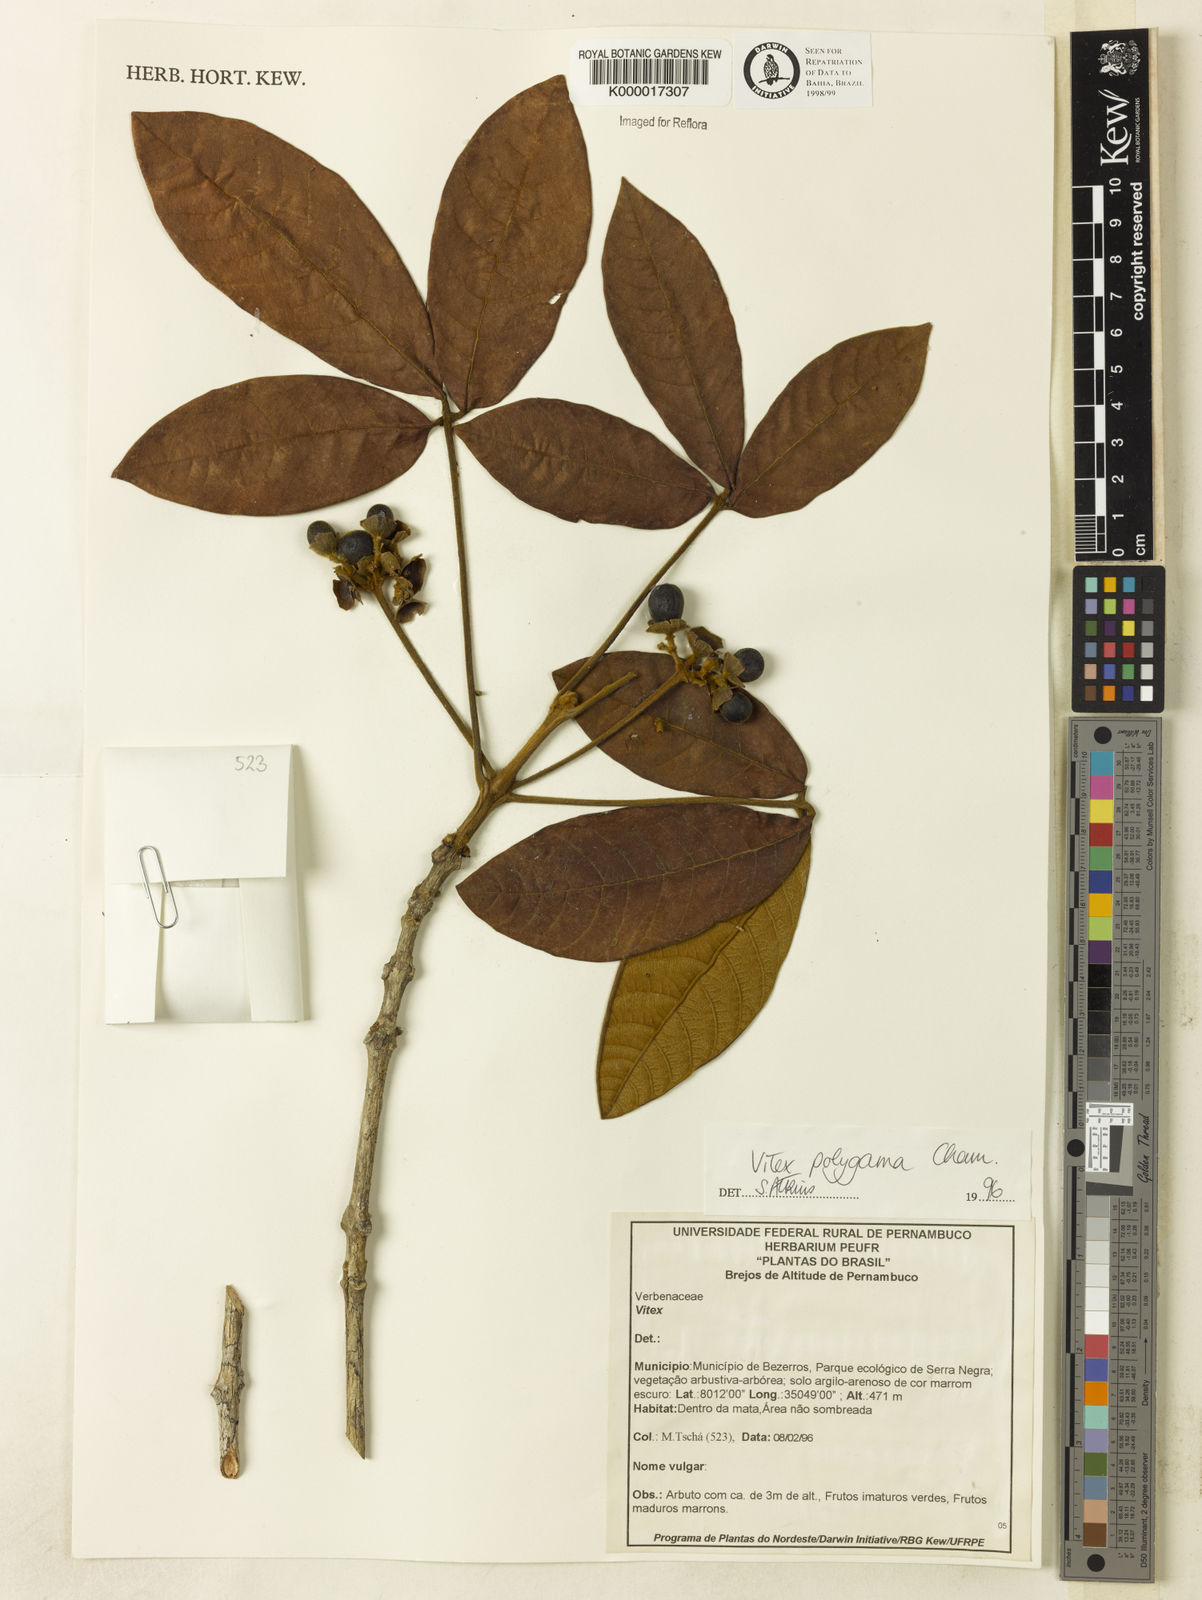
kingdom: Plantae
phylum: Tracheophyta
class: Magnoliopsida
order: Lamiales
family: Lamiaceae
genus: Vitex
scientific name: Vitex polygama
